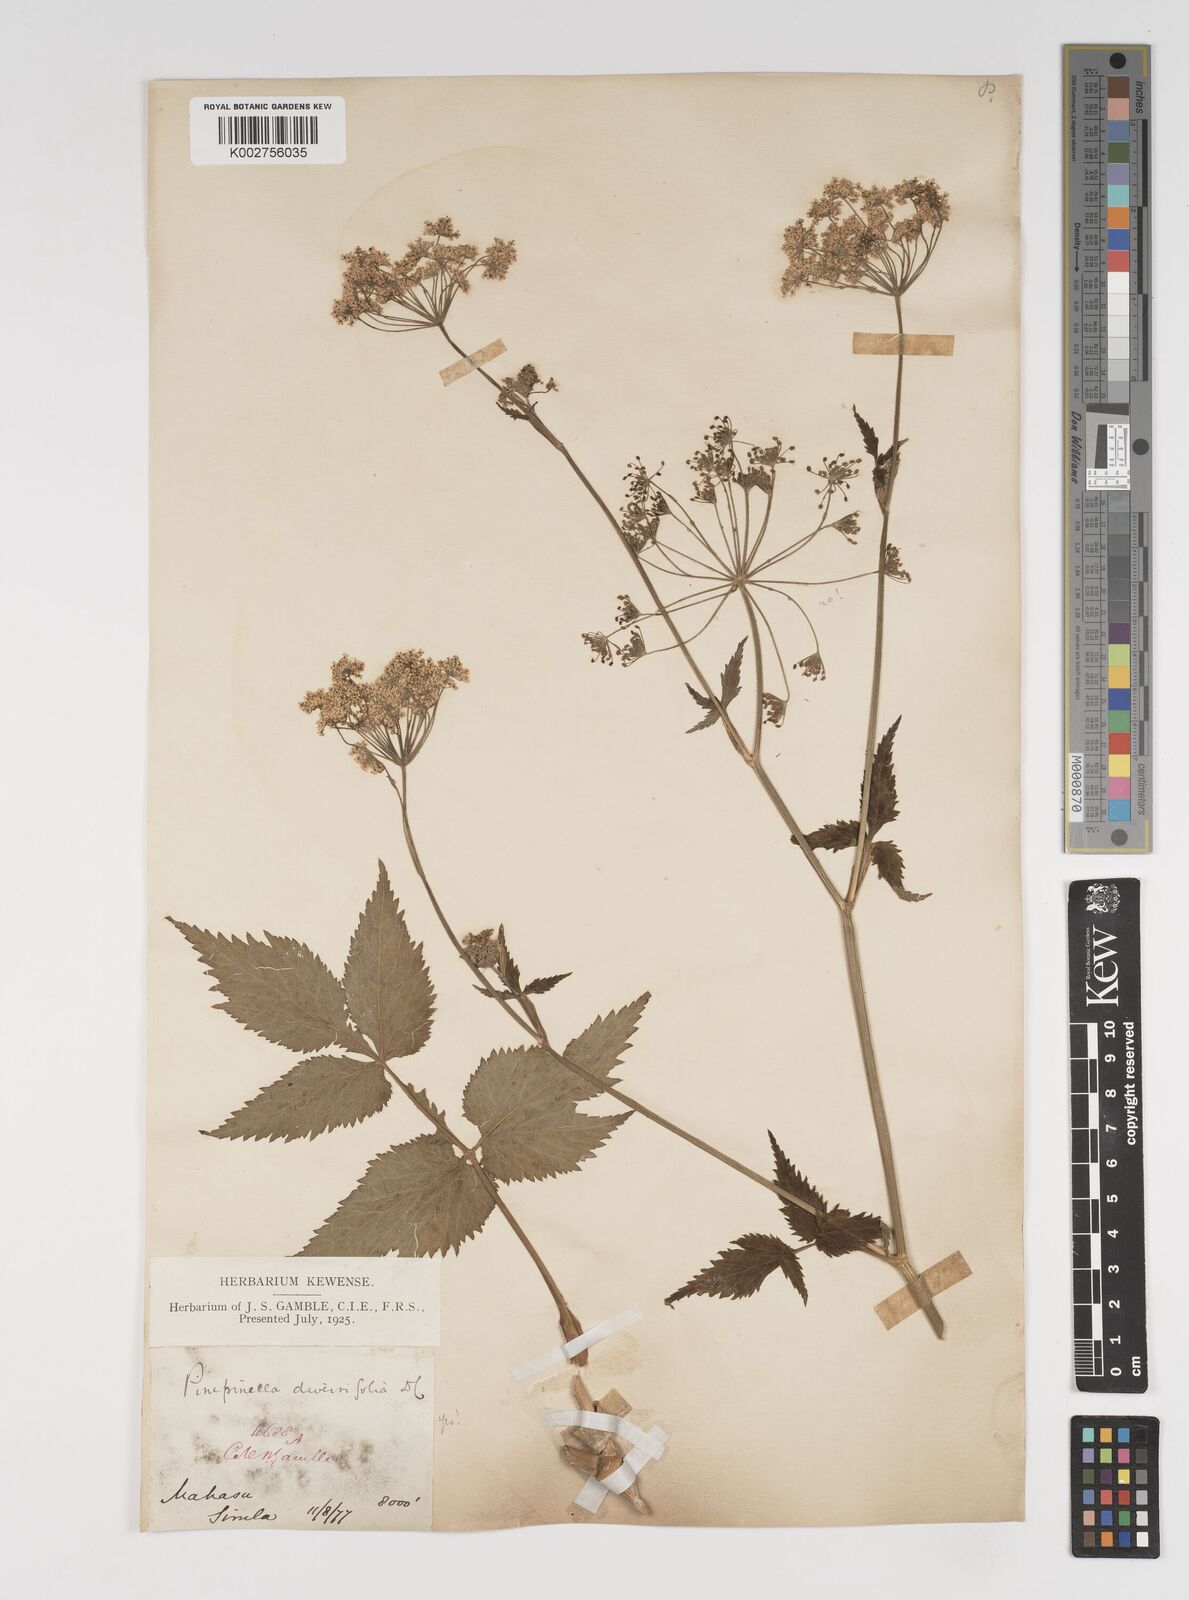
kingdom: Plantae
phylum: Tracheophyta
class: Magnoliopsida
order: Apiales
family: Apiaceae
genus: Pimpinella
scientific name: Pimpinella diversifolia
